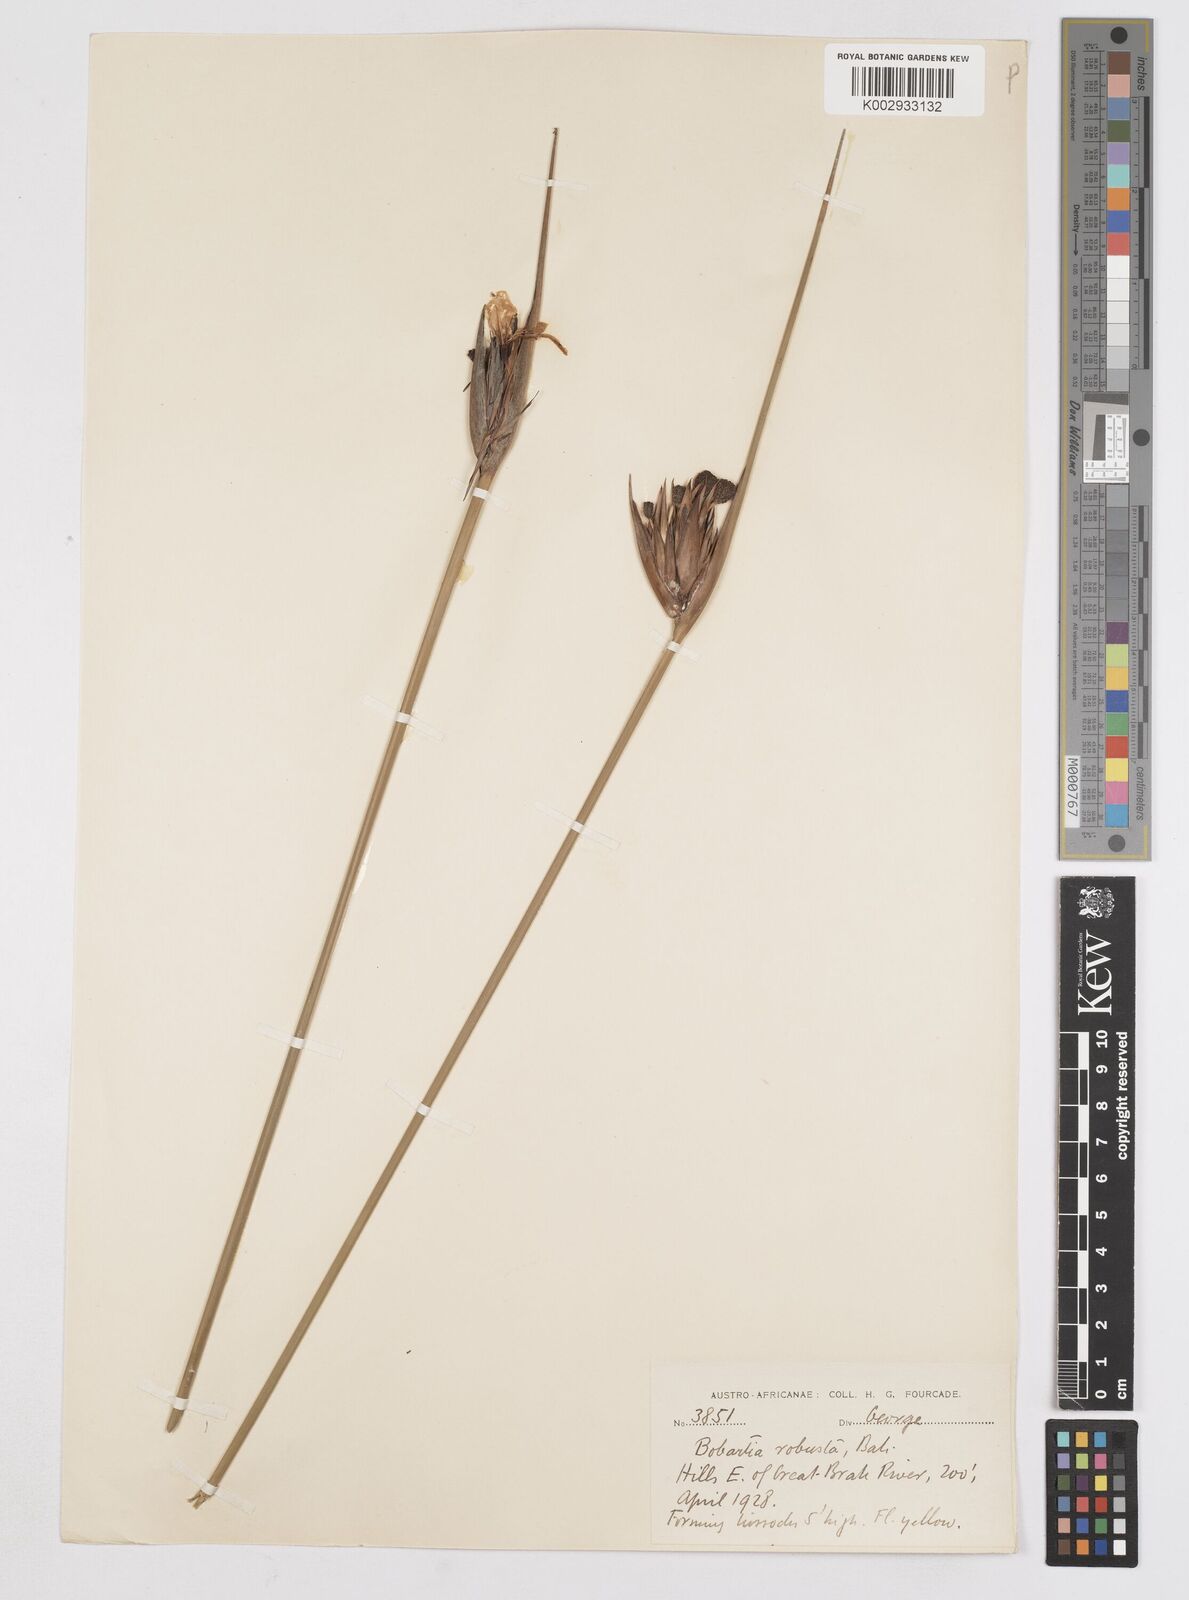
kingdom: Plantae
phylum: Tracheophyta
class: Liliopsida
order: Asparagales
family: Iridaceae
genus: Bobartia
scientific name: Bobartia robusta
